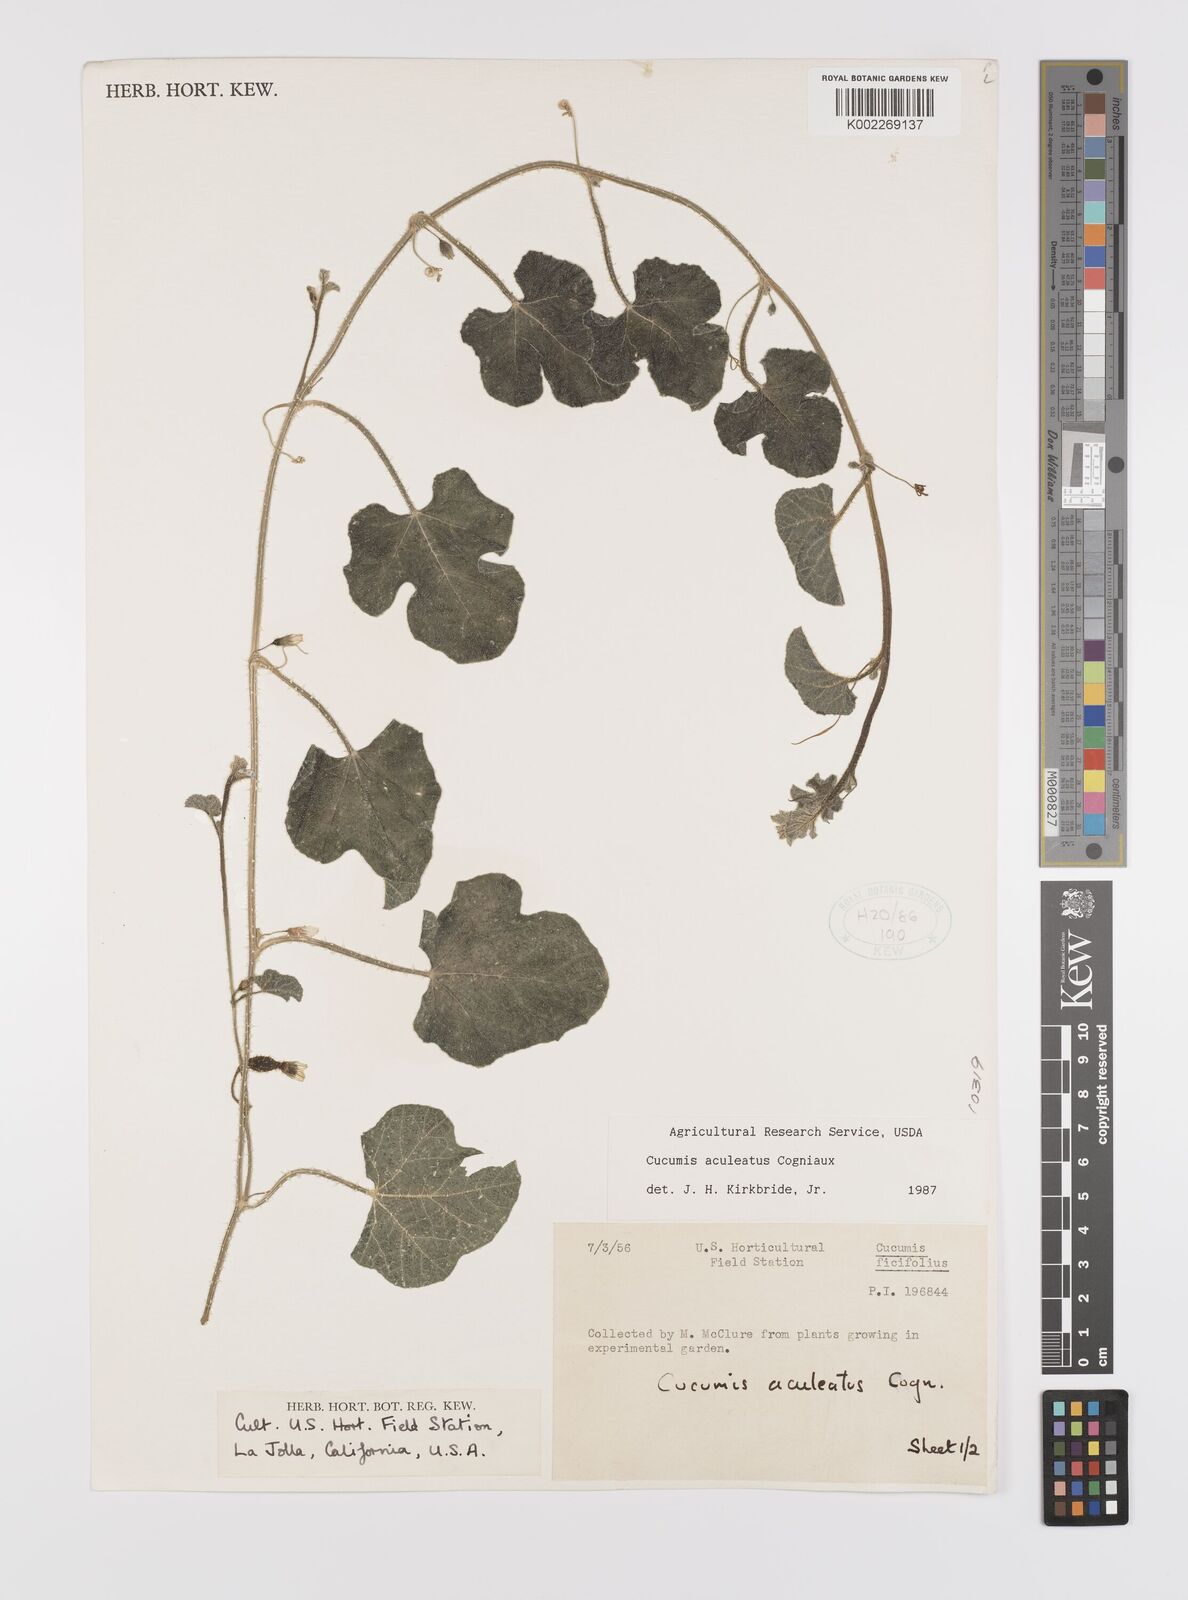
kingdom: Plantae
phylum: Tracheophyta
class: Magnoliopsida
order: Cucurbitales
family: Cucurbitaceae
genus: Cucumis
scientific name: Cucumis aculeatus
